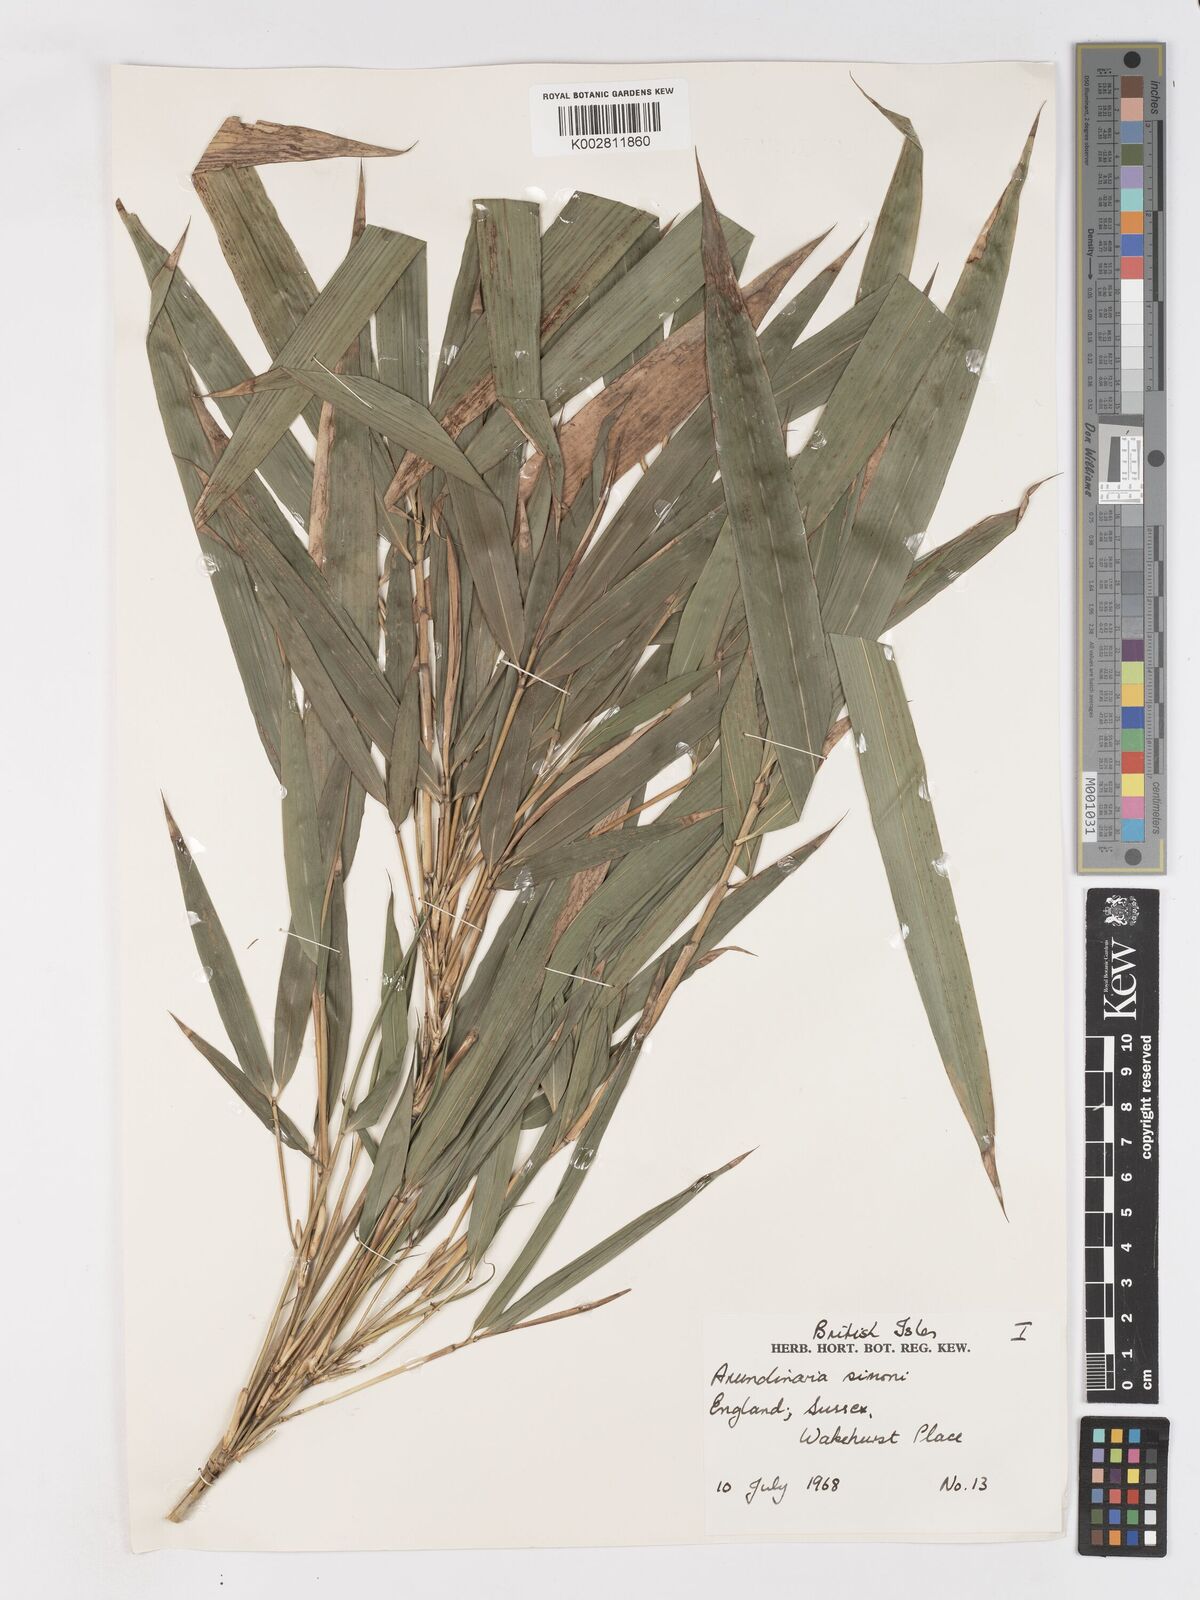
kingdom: Plantae
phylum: Tracheophyta
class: Liliopsida
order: Poales
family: Poaceae
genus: Pleioblastus
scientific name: Pleioblastus simonii
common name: Simon bamboo
